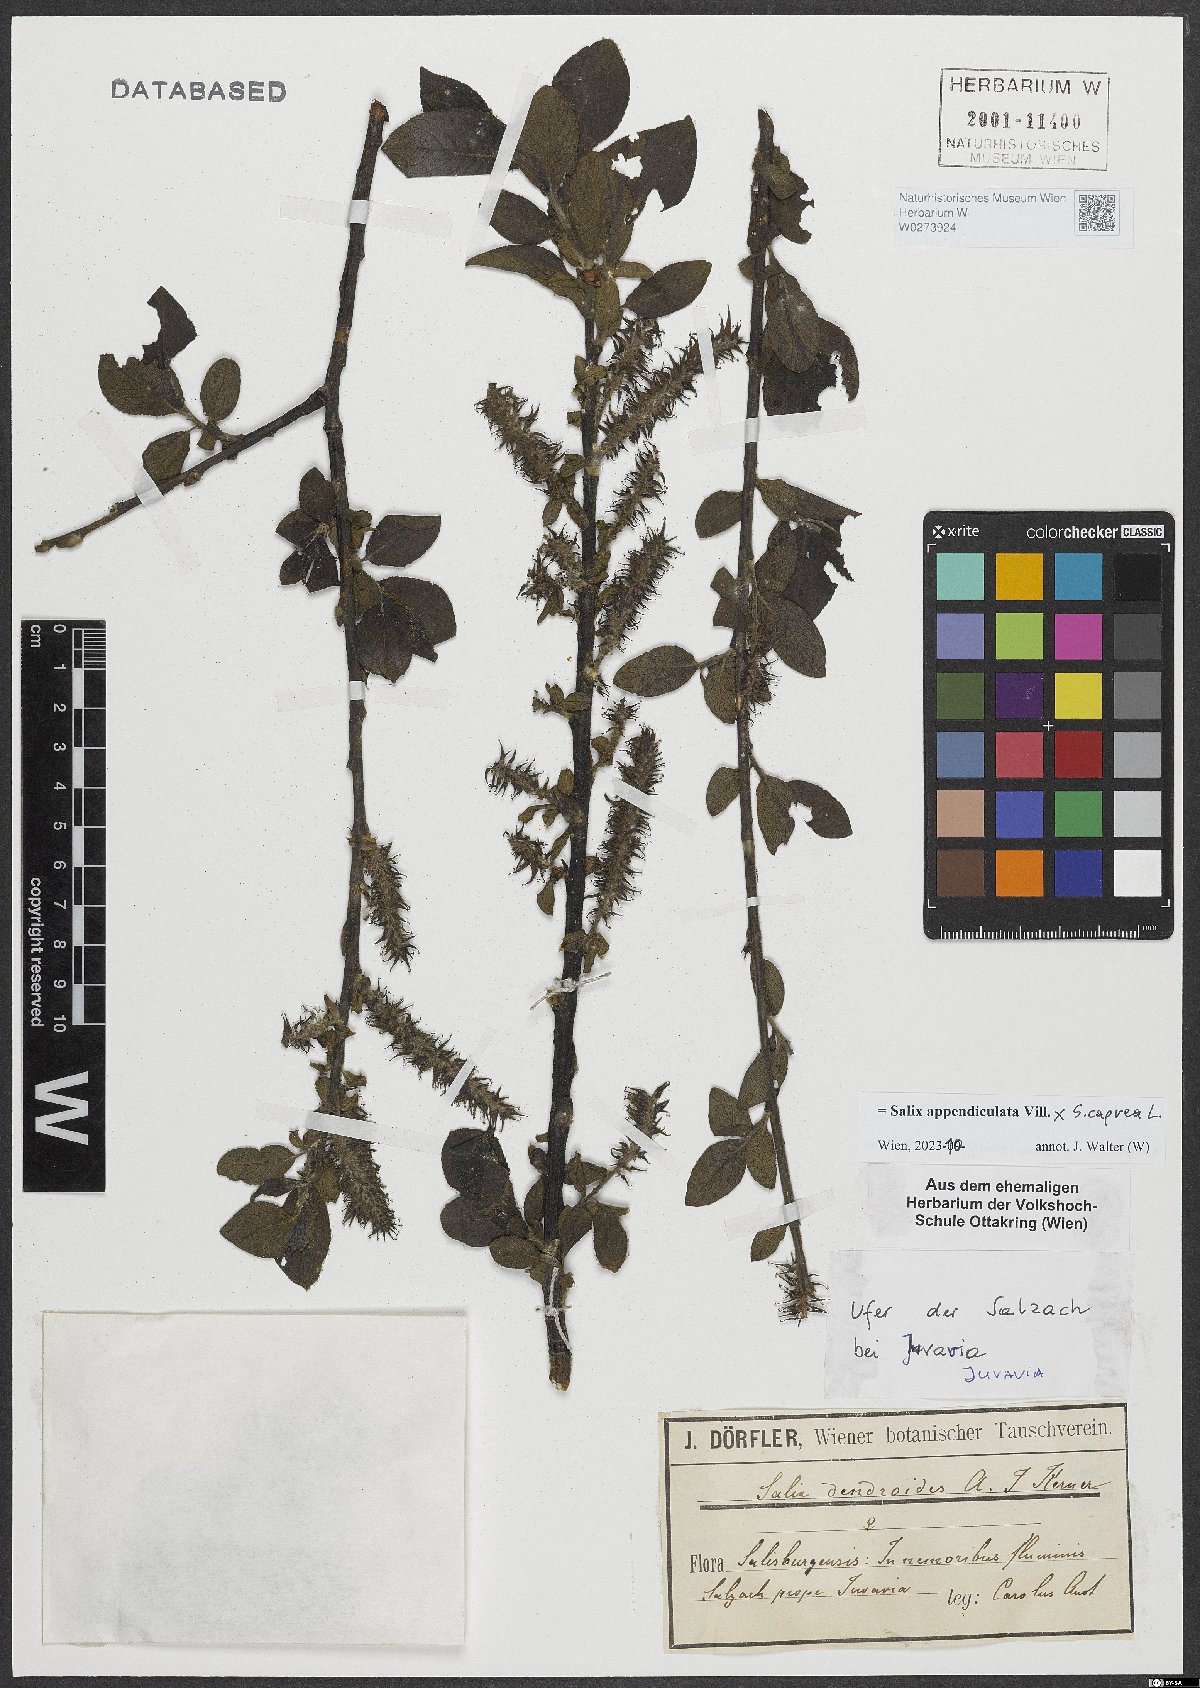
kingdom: Plantae
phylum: Tracheophyta
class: Magnoliopsida
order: Malpighiales
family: Salicaceae
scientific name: Salicaceae
